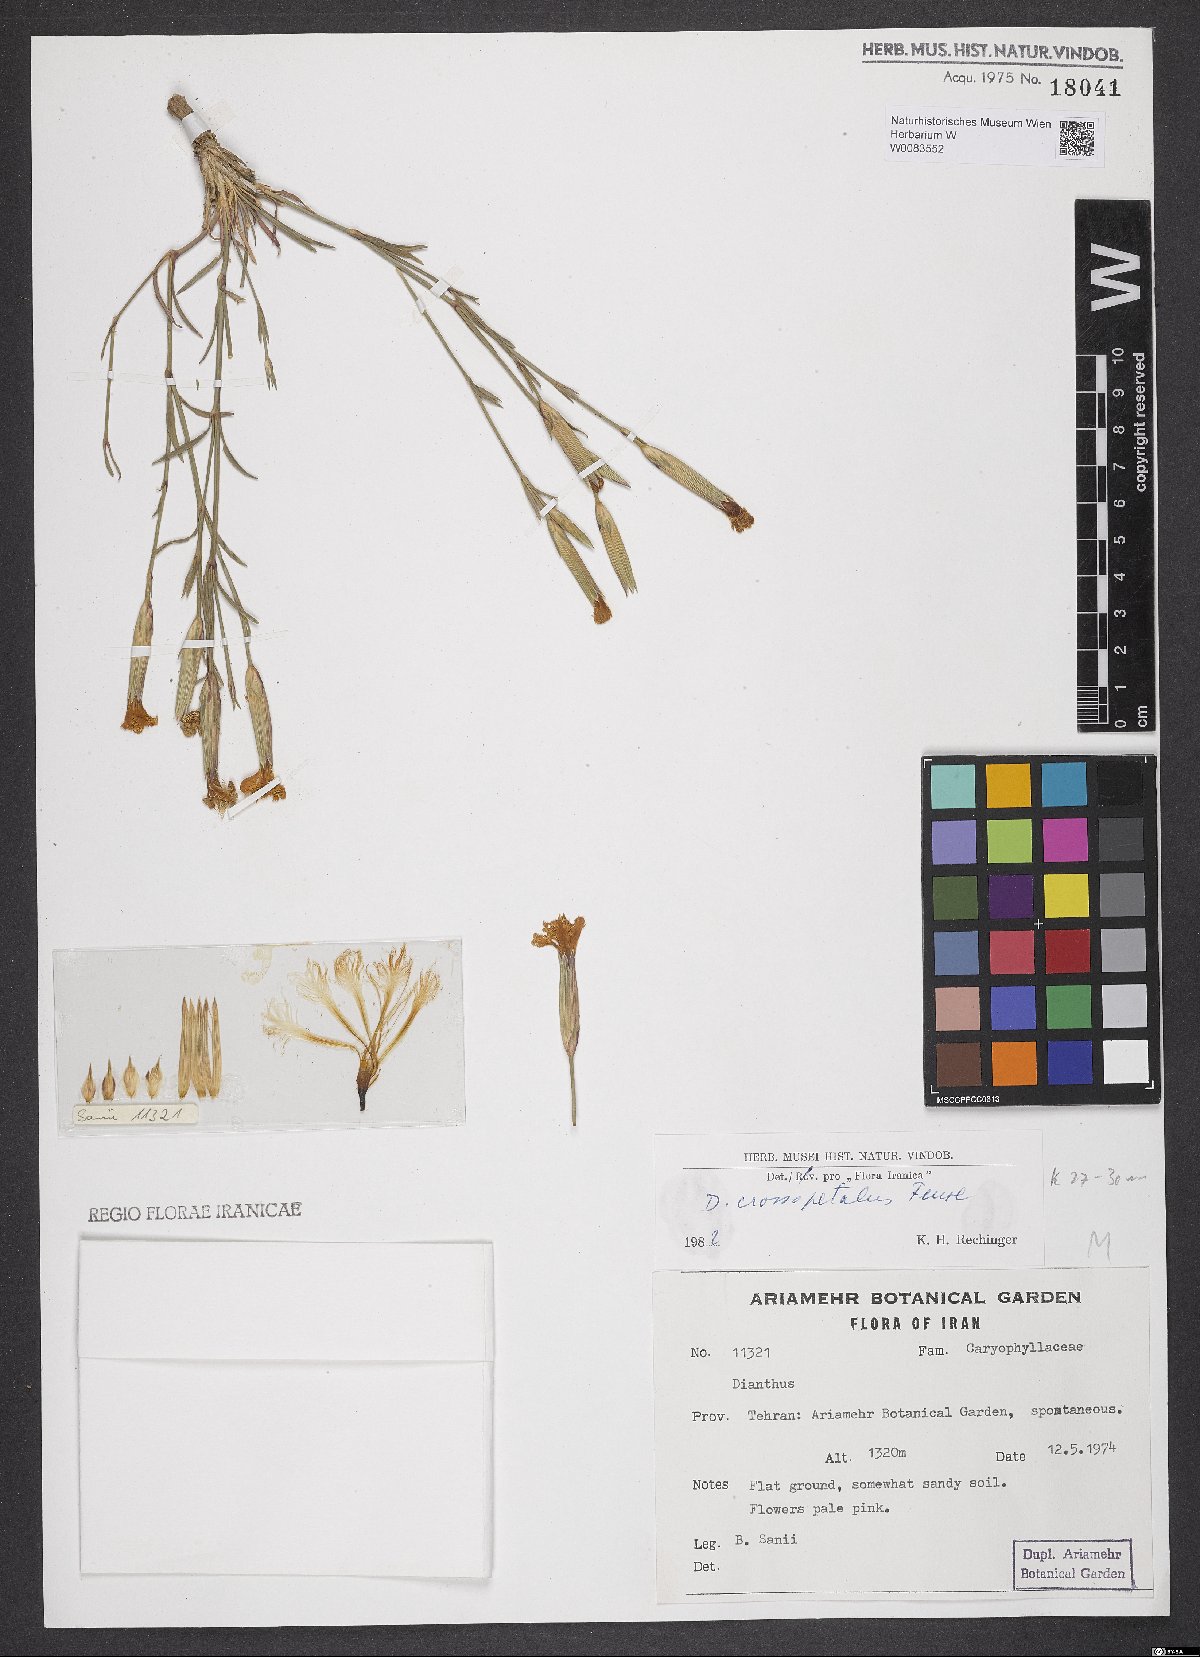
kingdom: Plantae
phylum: Tracheophyta
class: Magnoliopsida
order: Caryophyllales
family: Caryophyllaceae
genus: Dianthus
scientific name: Dianthus crossopetalus
